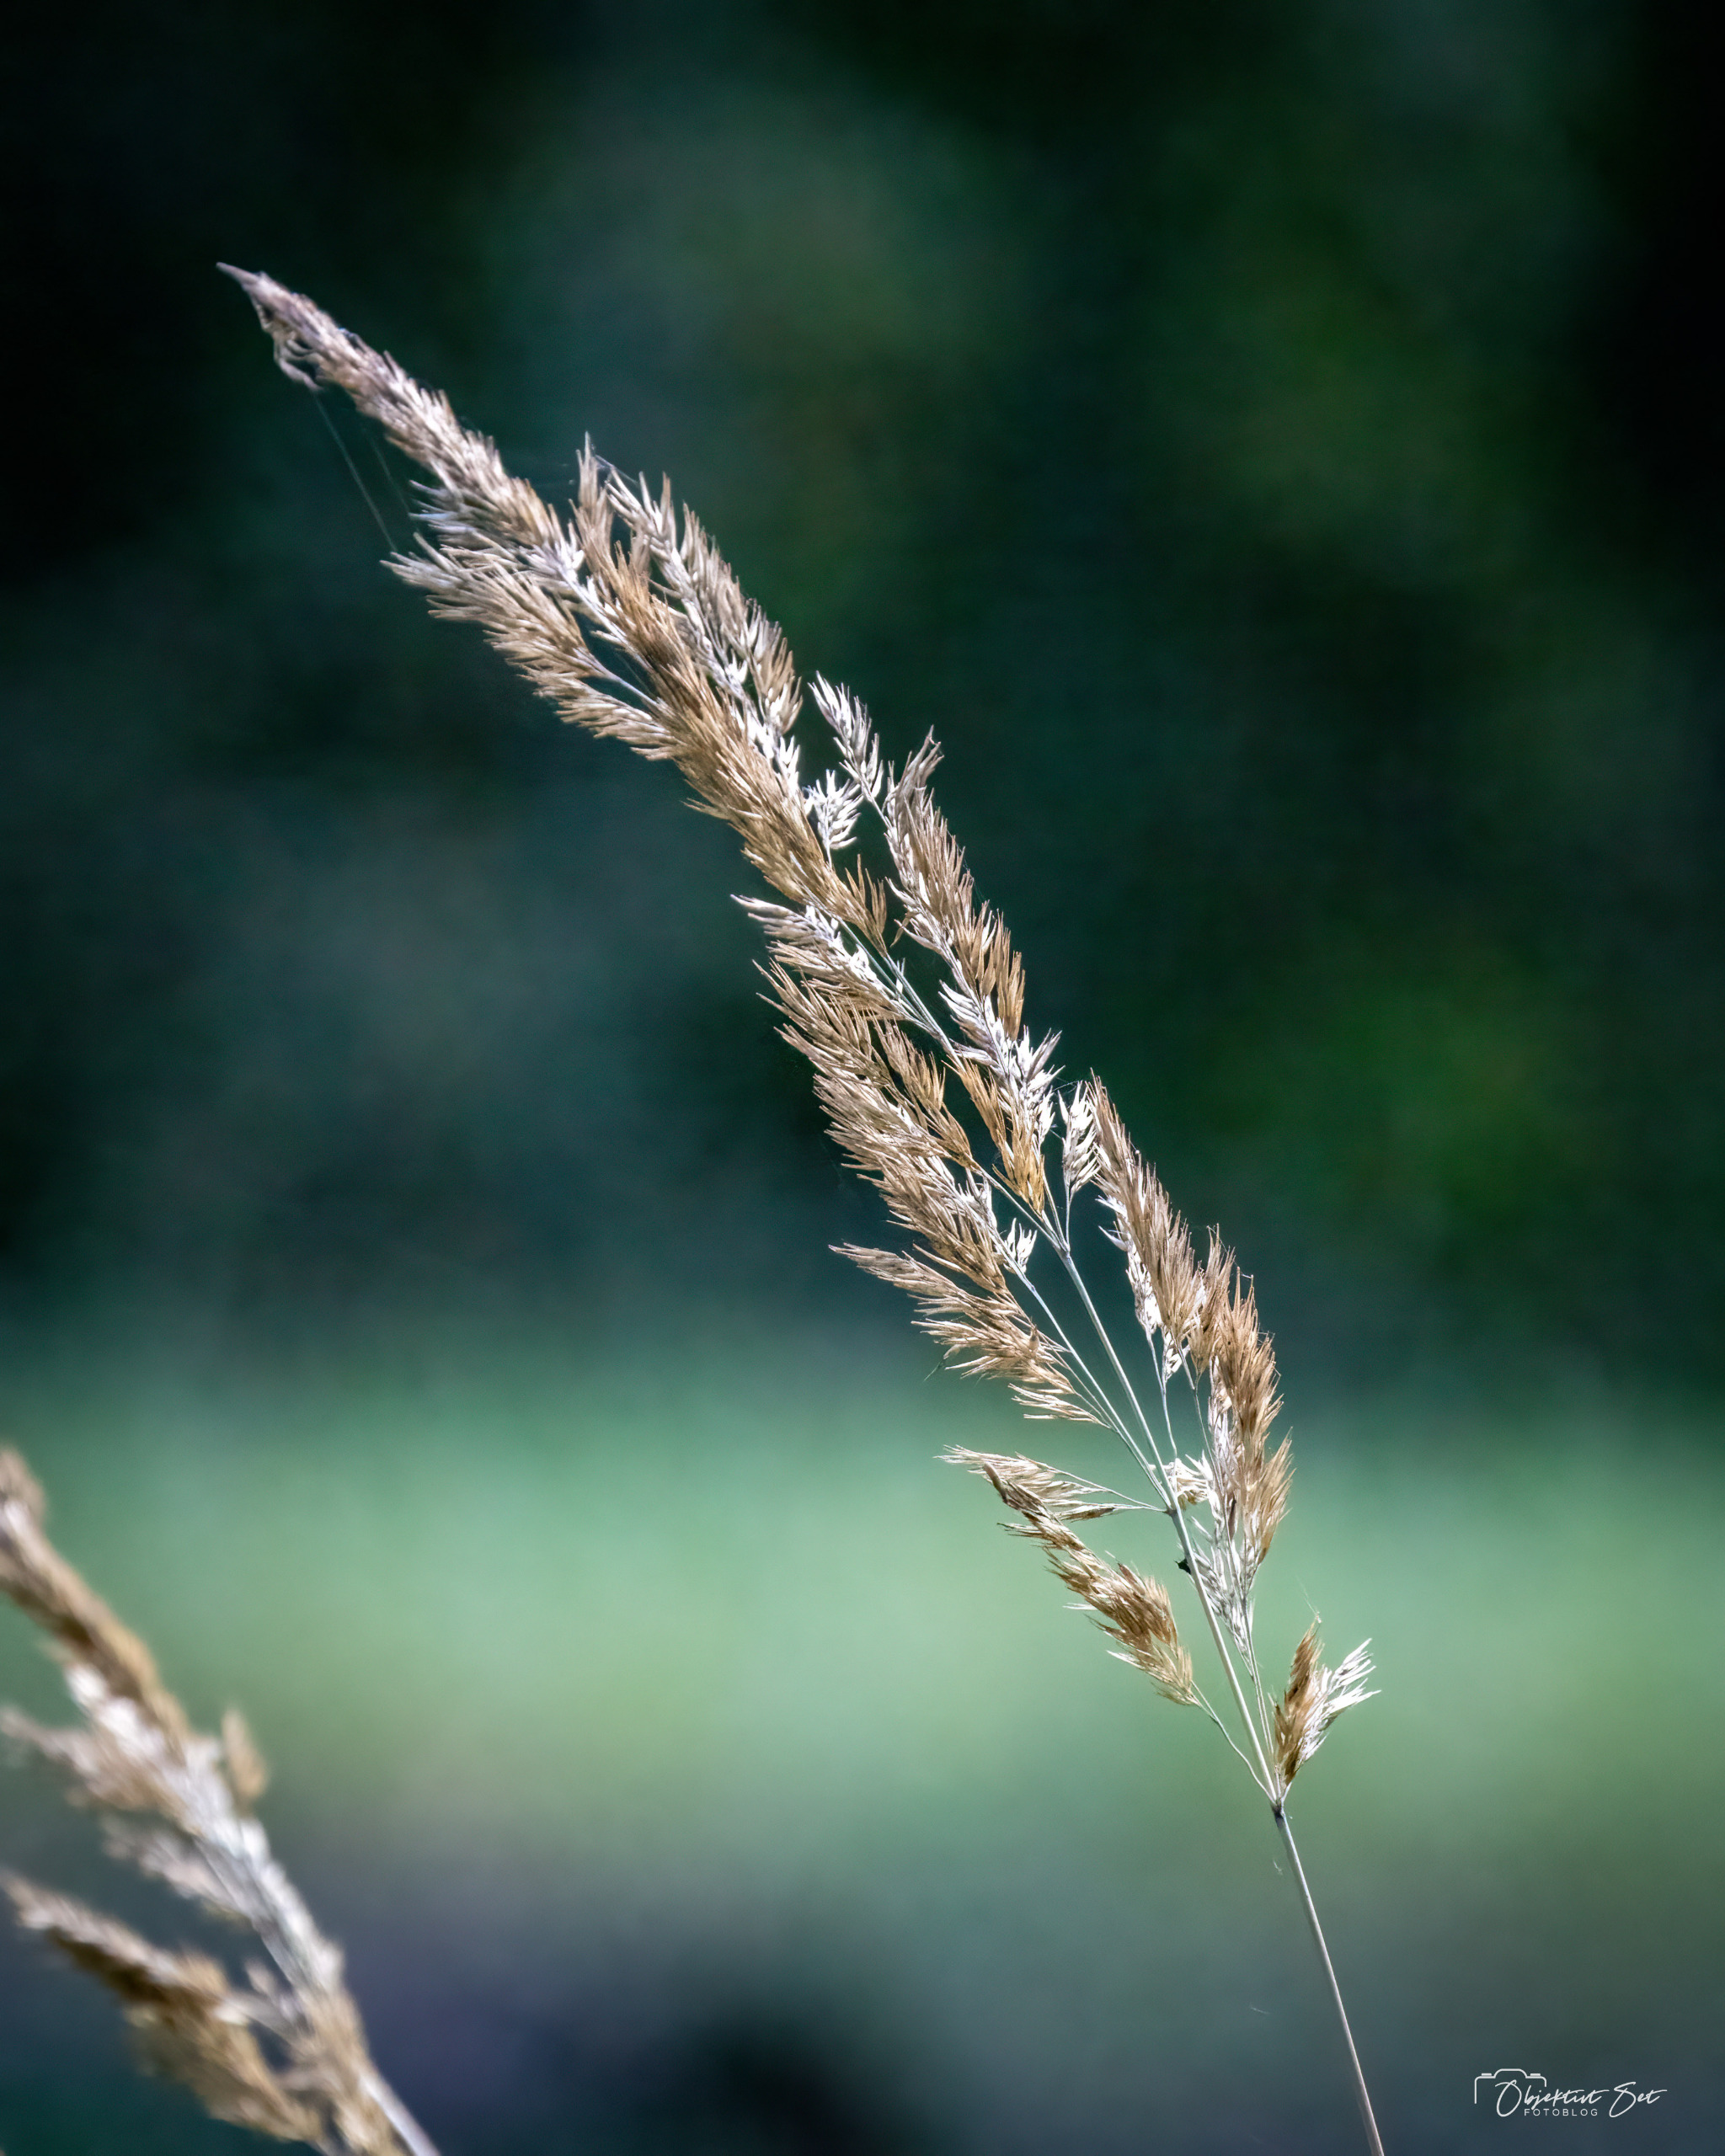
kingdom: Plantae
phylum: Tracheophyta
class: Liliopsida
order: Poales
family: Poaceae
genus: Calamagrostis
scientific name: Calamagrostis
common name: Rørhveneslægten
